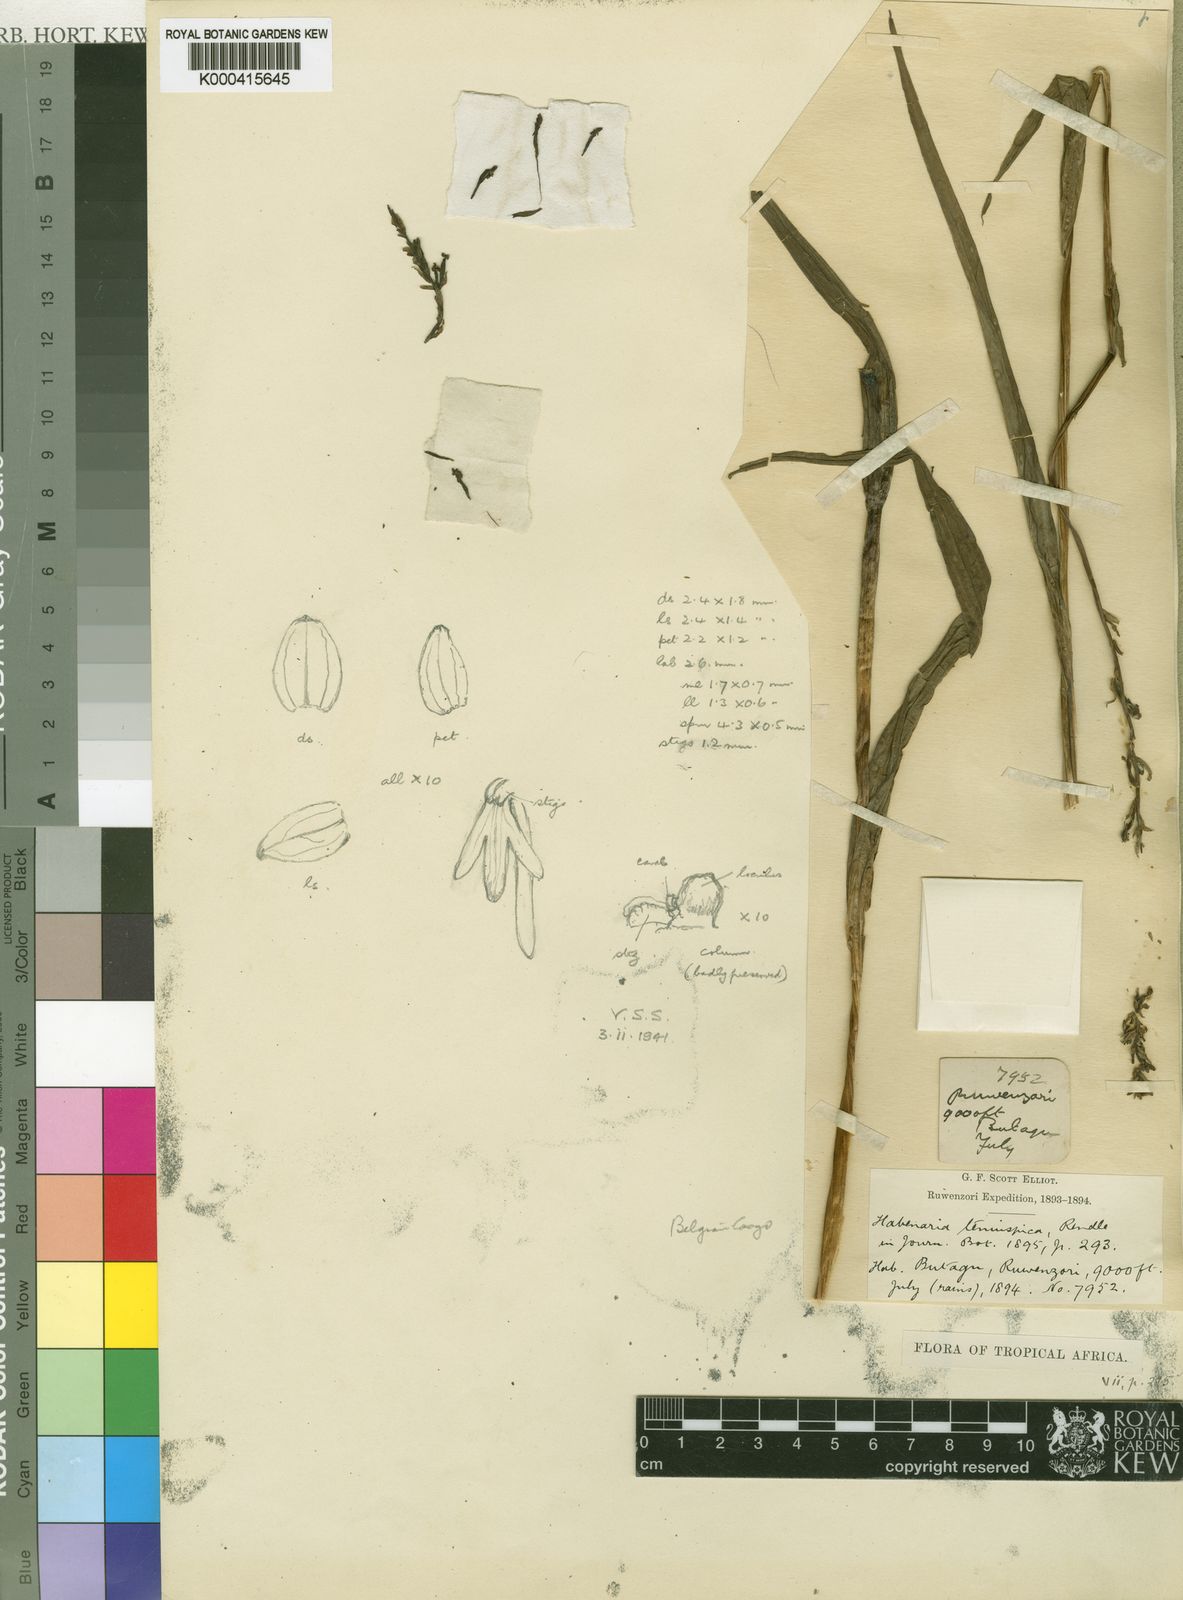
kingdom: Plantae
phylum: Tracheophyta
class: Liliopsida
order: Asparagales
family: Orchidaceae
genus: Habenaria
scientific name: Habenaria attenuata
